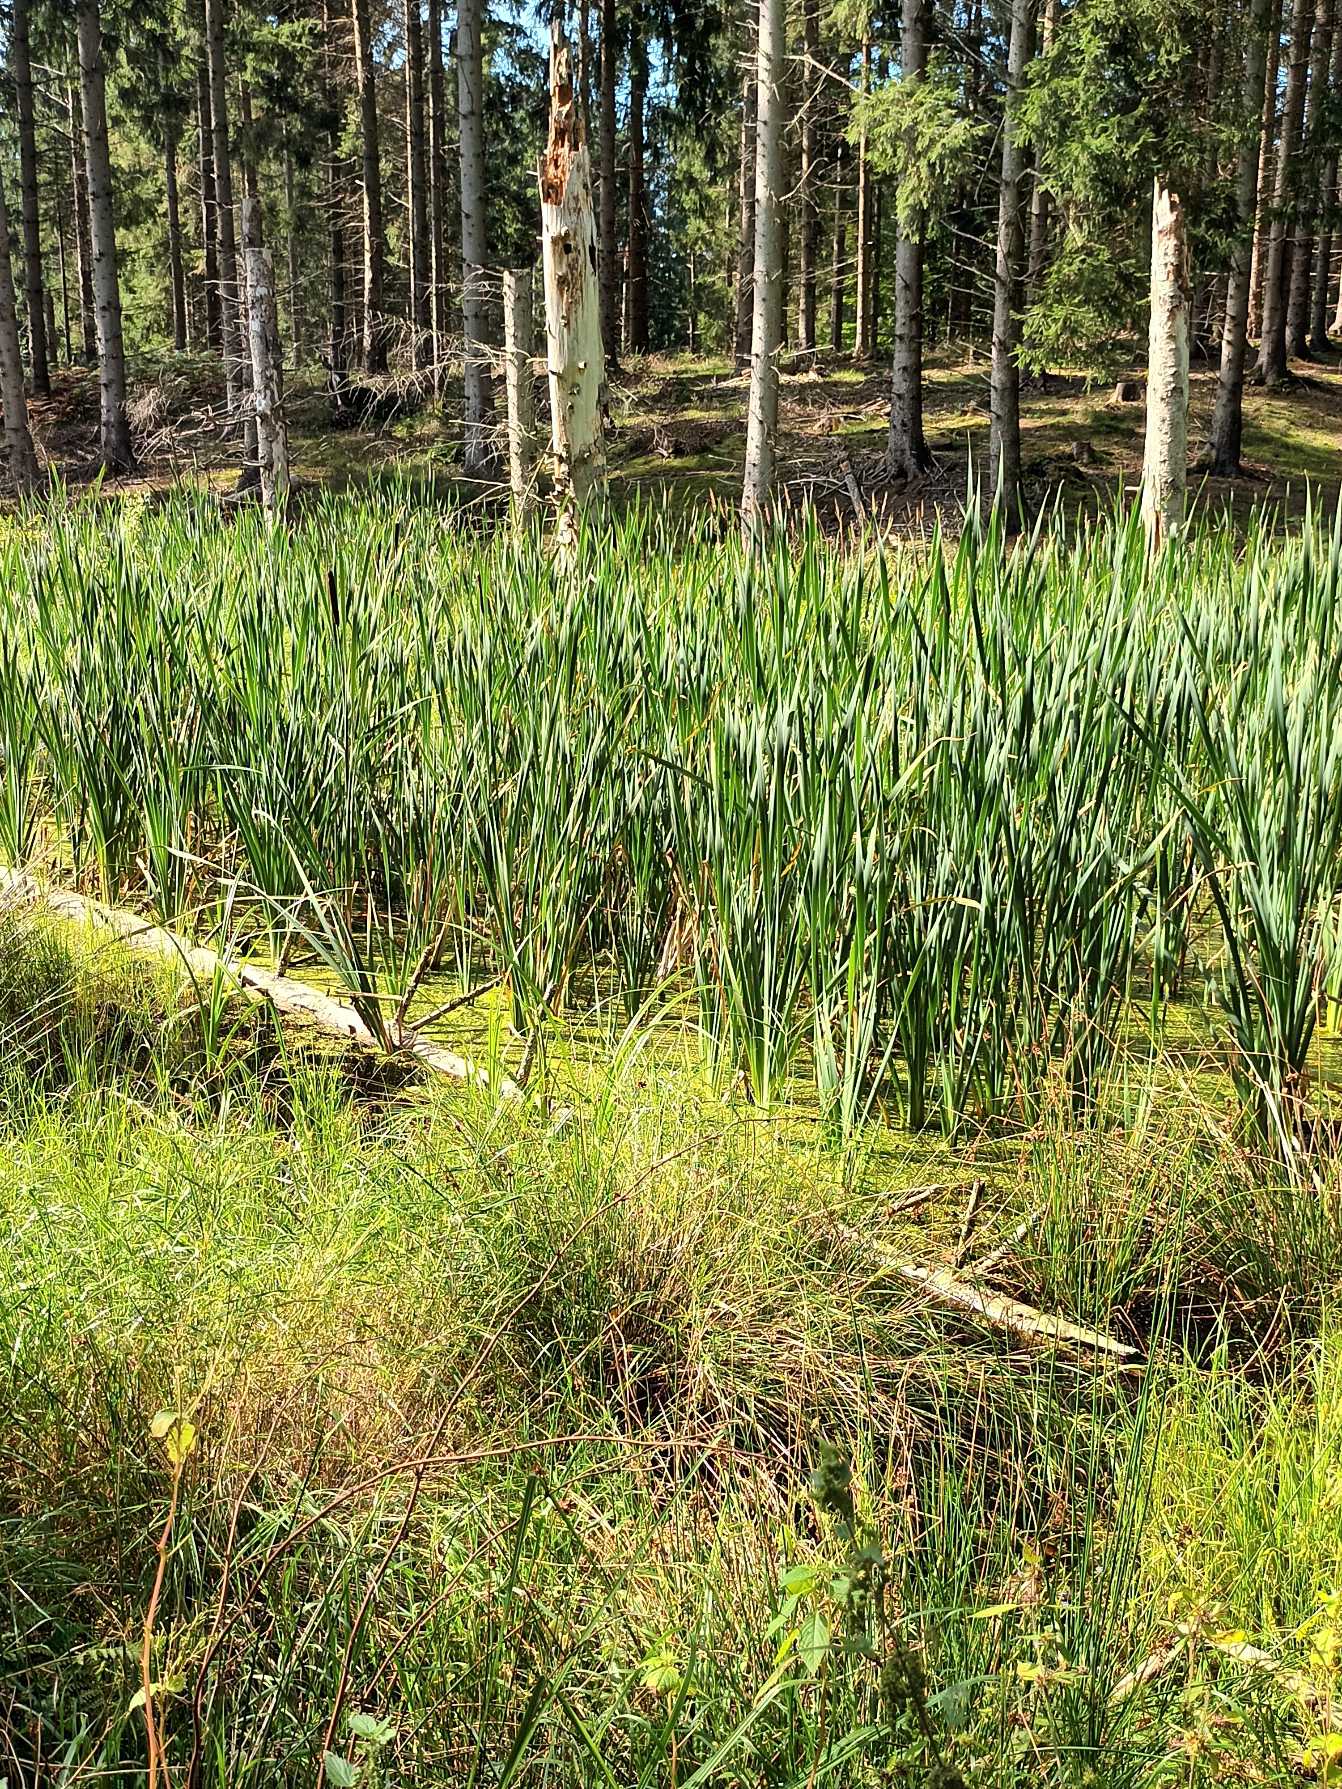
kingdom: Plantae
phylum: Tracheophyta
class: Liliopsida
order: Poales
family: Typhaceae
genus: Typha
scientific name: Typha latifolia
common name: Bredbladet dunhammer
